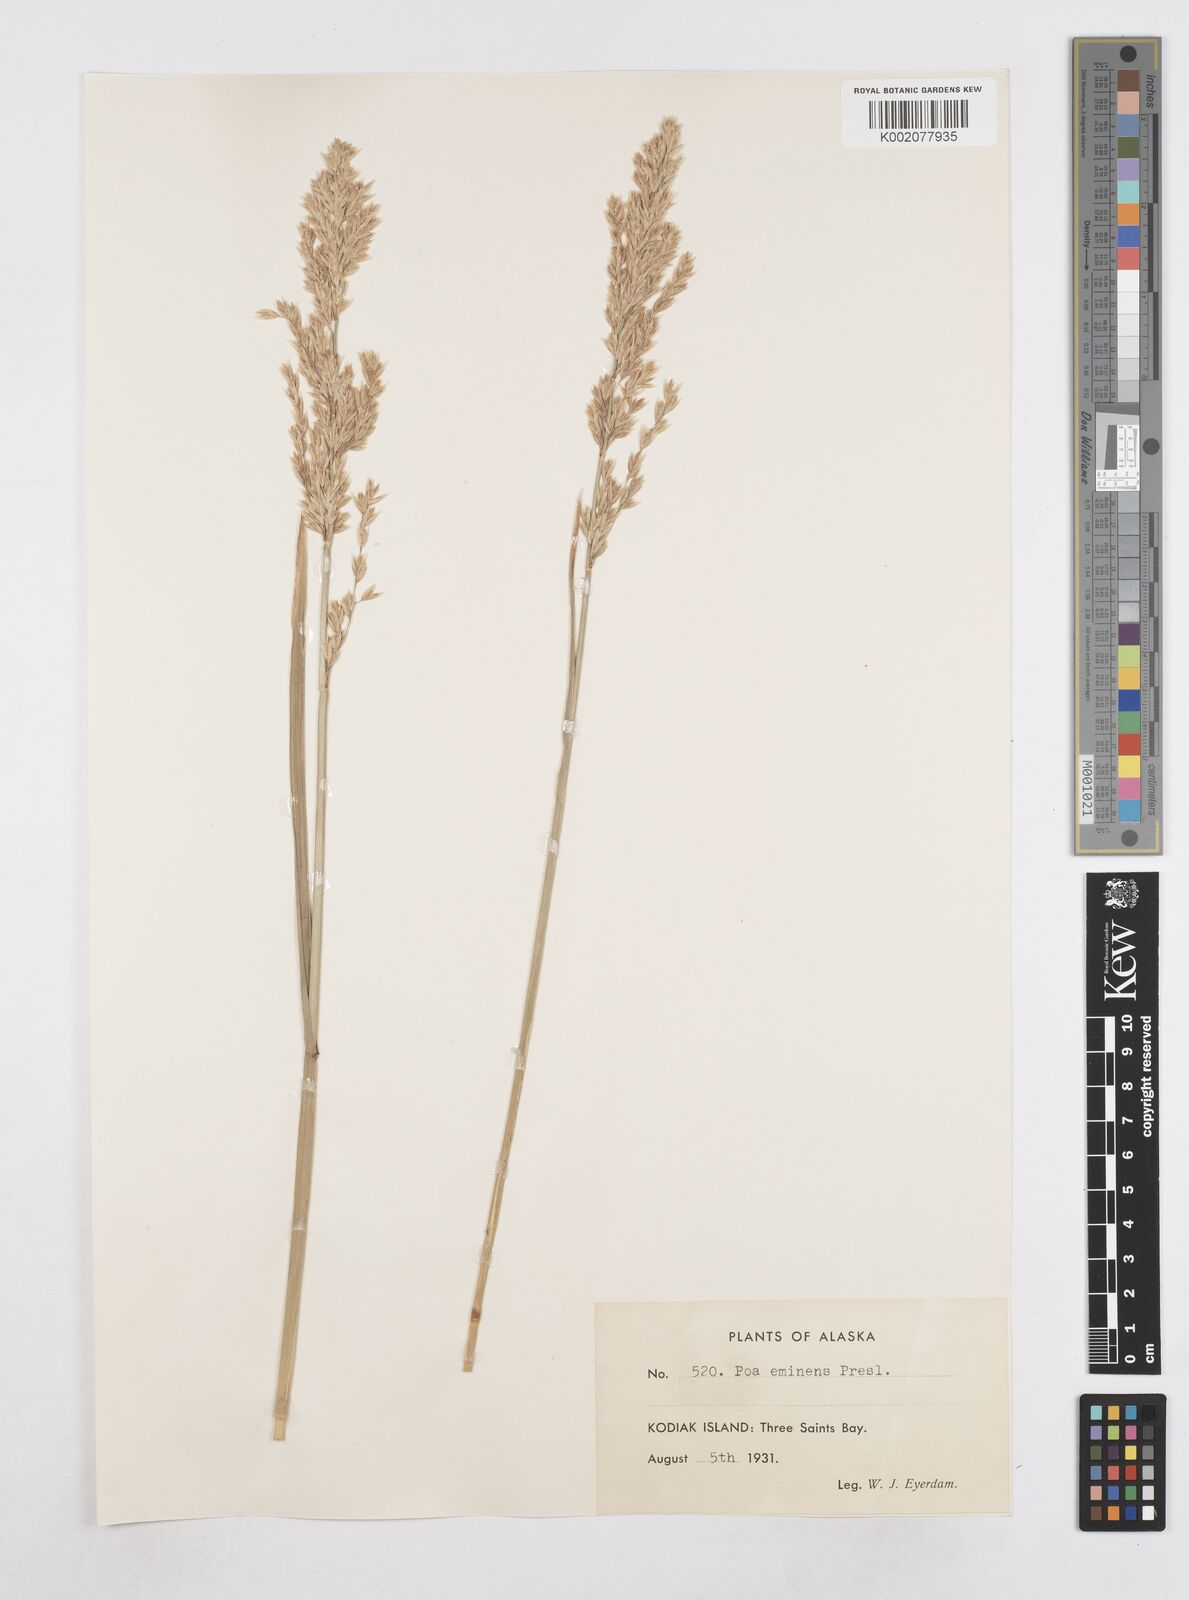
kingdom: Plantae
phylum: Tracheophyta
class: Liliopsida
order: Poales
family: Poaceae
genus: Arctopoa
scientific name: Arctopoa eminens
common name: Eminent bluegrass
